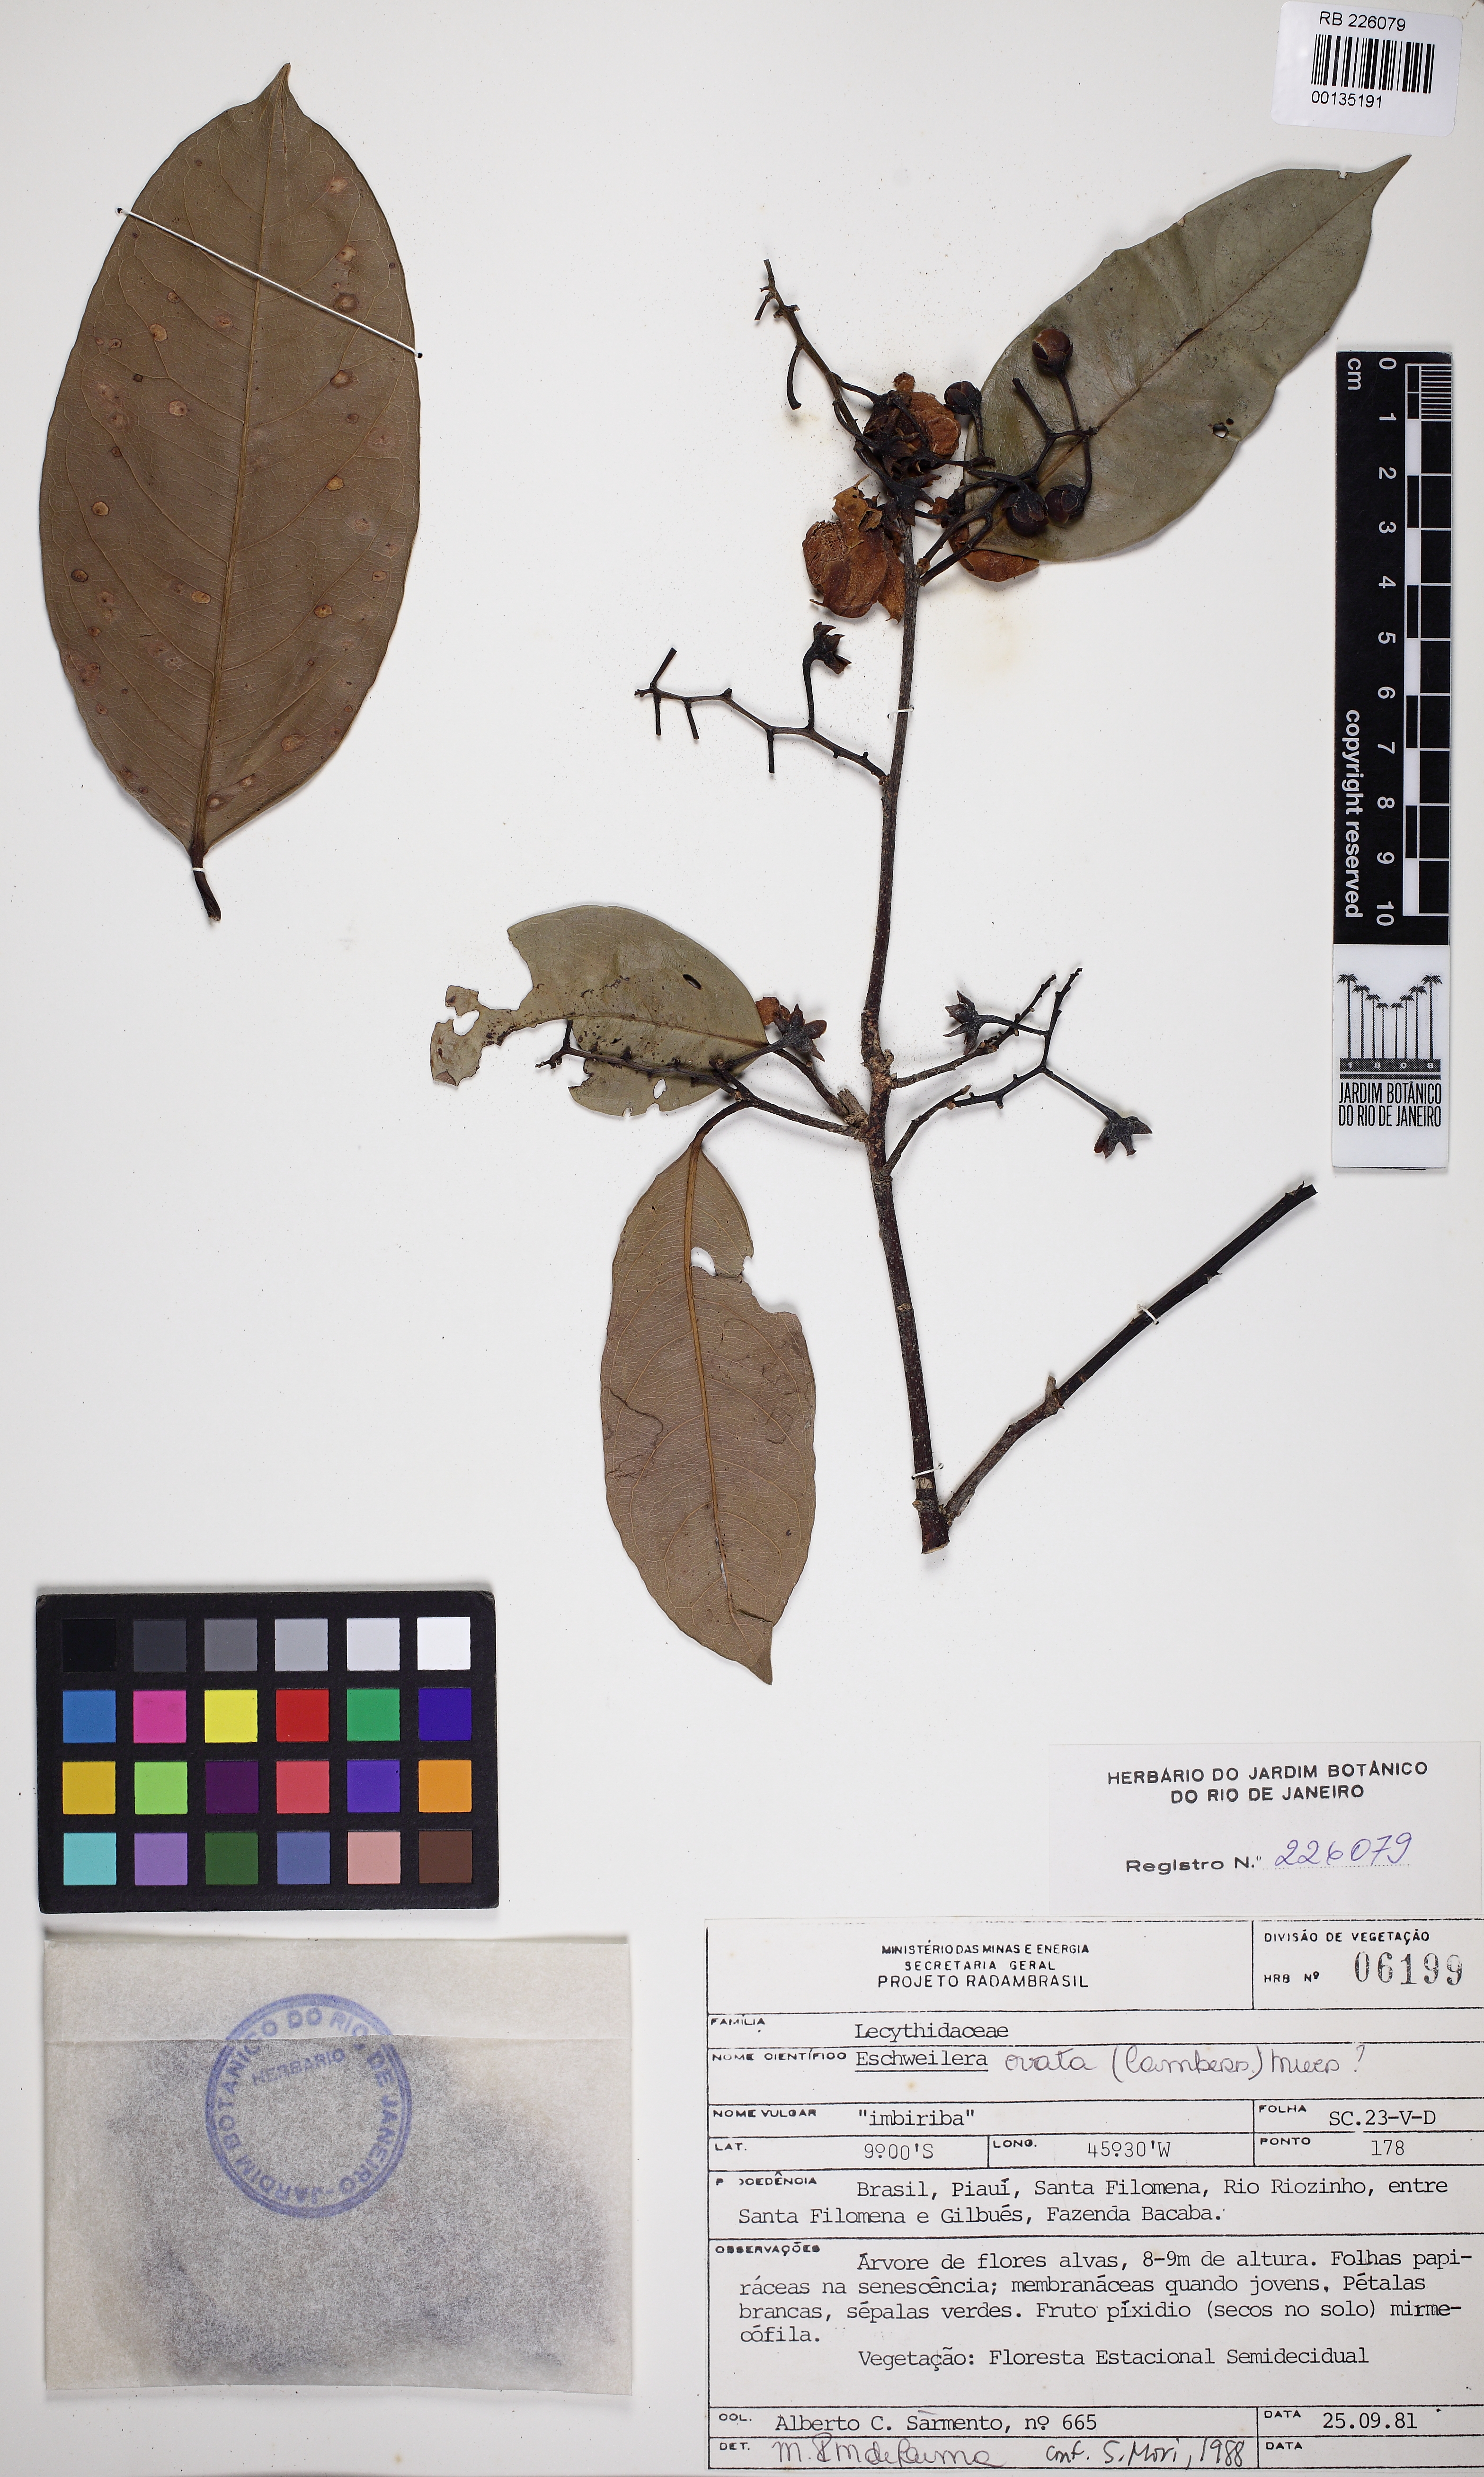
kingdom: Plantae
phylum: Tracheophyta
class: Magnoliopsida
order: Ericales
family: Lecythidaceae
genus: Eschweilera
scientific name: Eschweilera ovata
